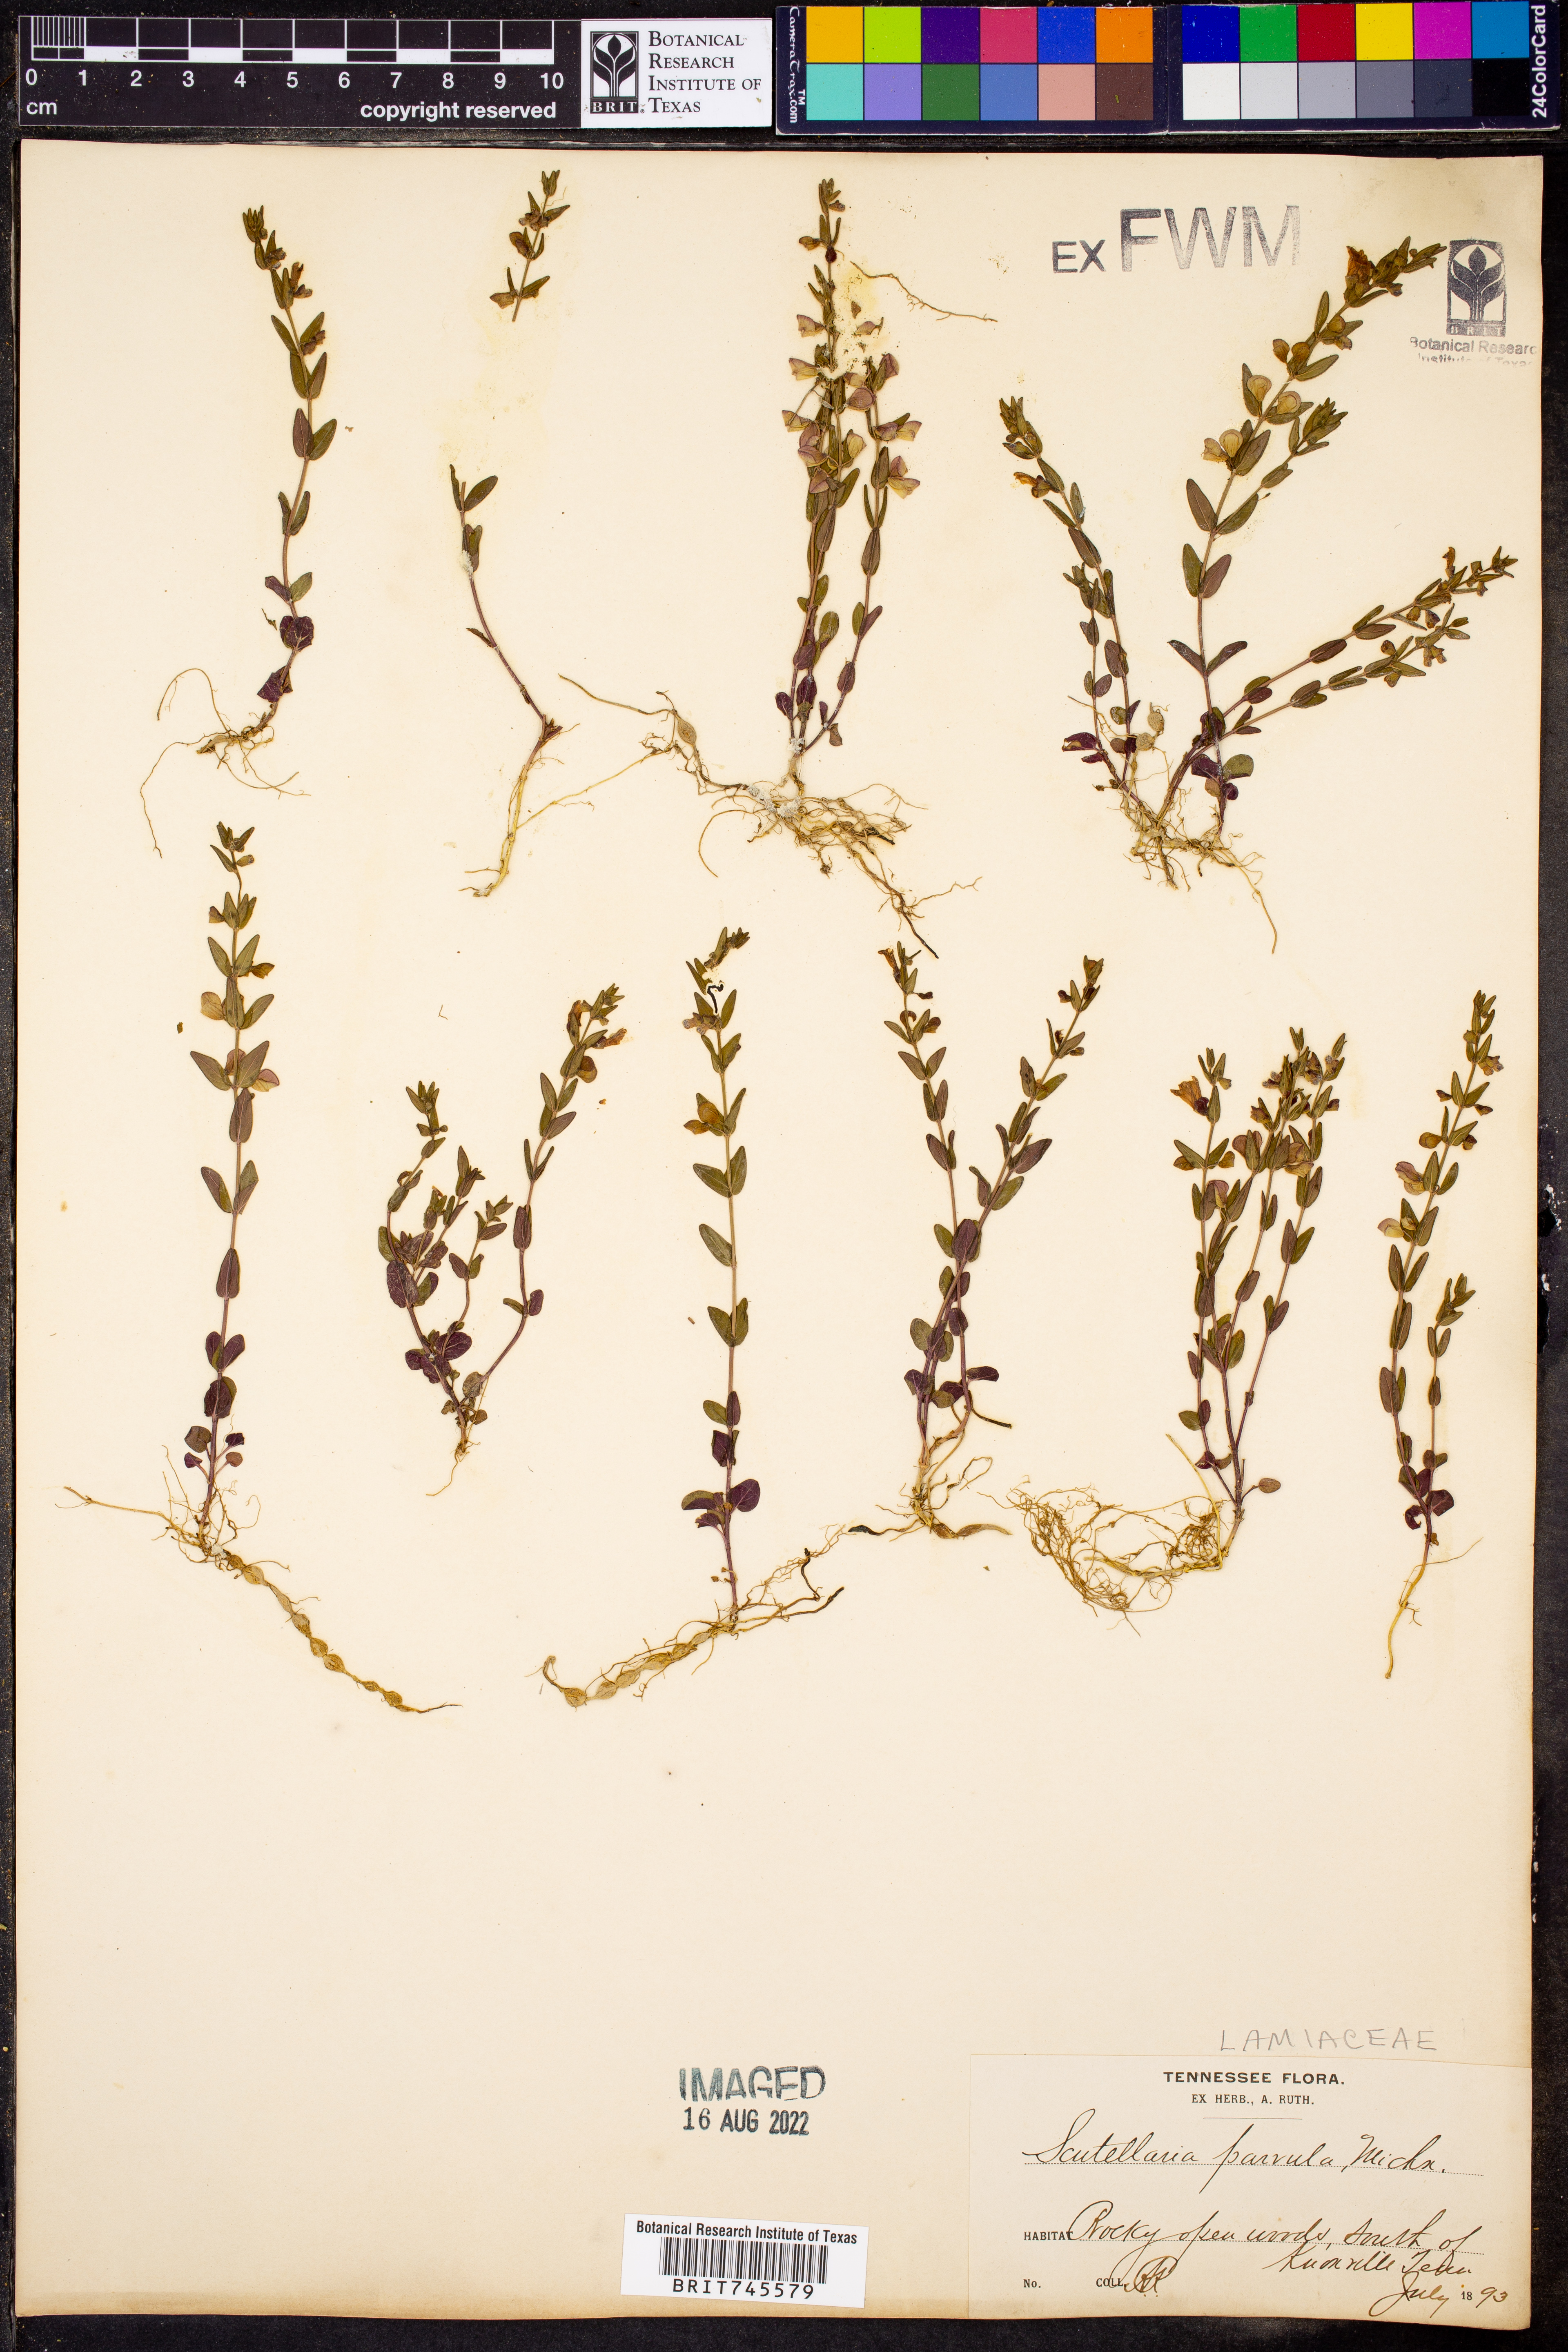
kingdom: Plantae
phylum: Tracheophyta
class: Magnoliopsida
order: Lamiales
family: Lamiaceae
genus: Scutellaria
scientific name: Scutellaria parvula
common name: Little scullcap
